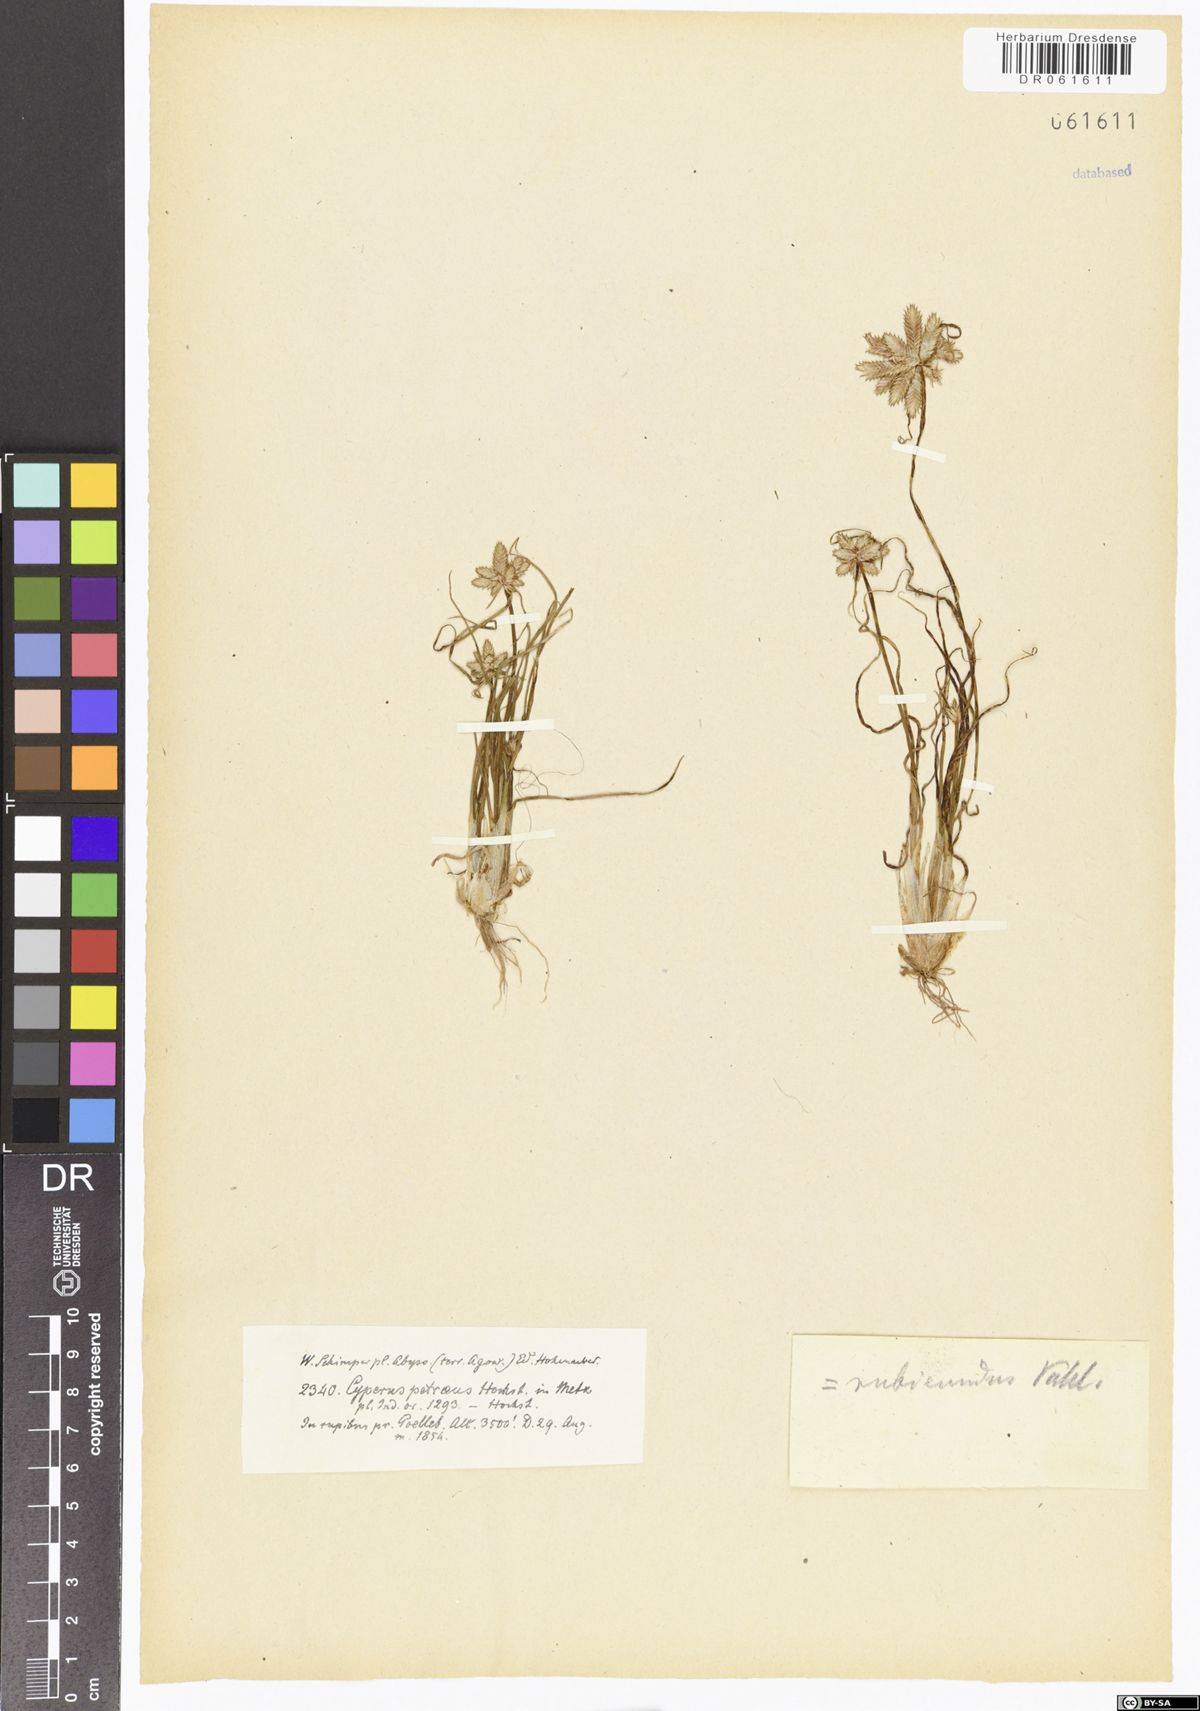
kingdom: Plantae
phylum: Tracheophyta
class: Liliopsida
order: Poales
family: Cyperaceae
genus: Cyperus
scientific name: Cyperus rubicundus
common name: Coco-grass
